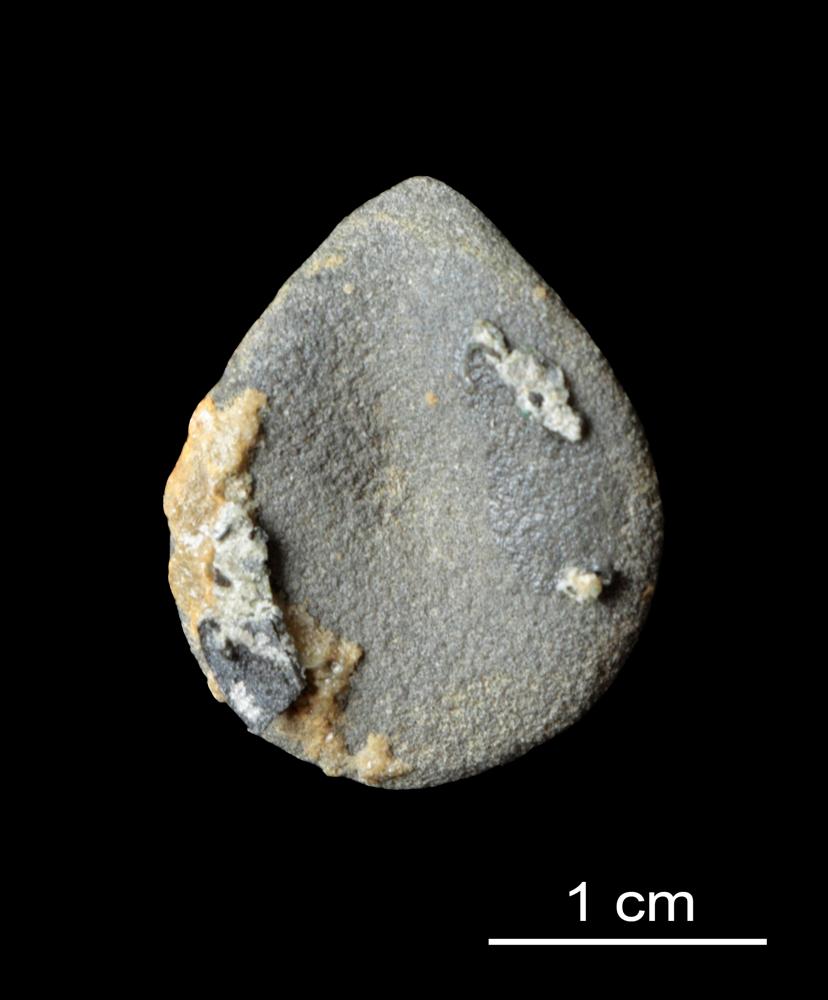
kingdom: Animalia
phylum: Brachiopoda
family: Paterinidae
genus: Mickwitzia
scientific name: Mickwitzia
